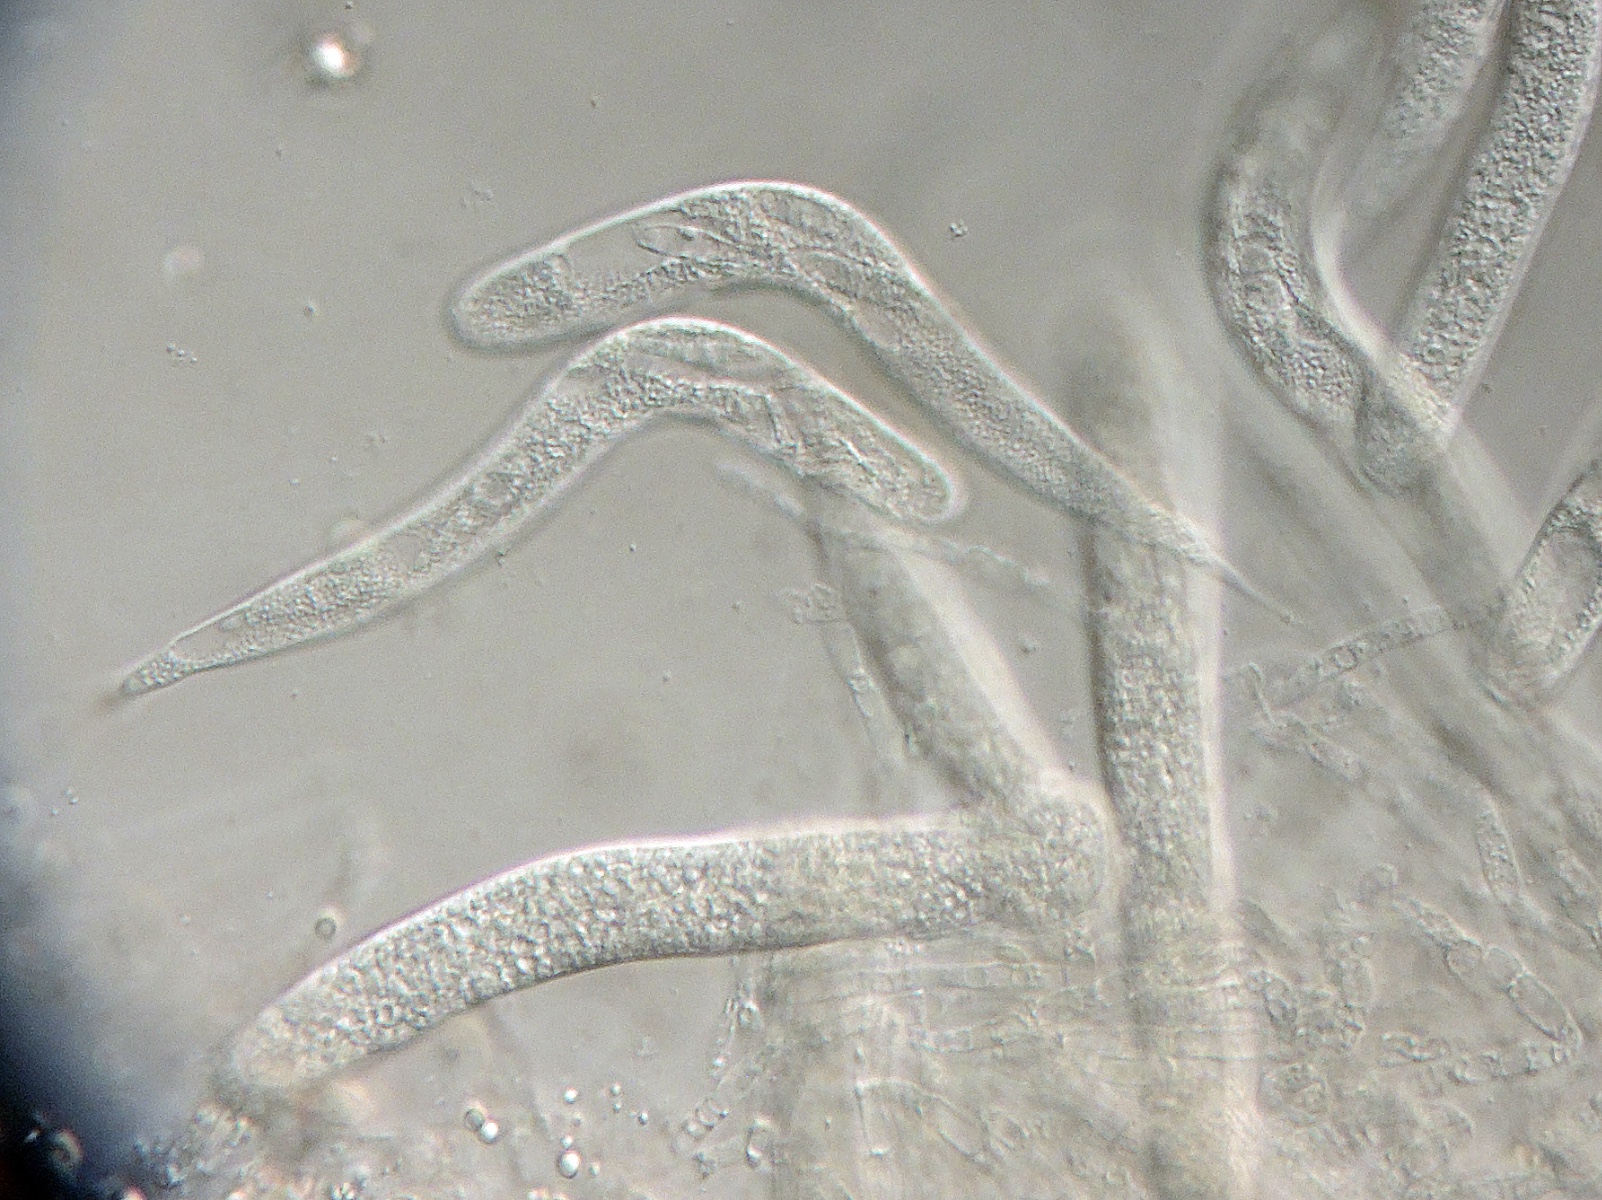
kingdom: Fungi
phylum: Ascomycota
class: Sordariomycetes
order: Annulatascales
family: Annulatascaceae
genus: Rhamphoria
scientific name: Rhamphoria pyriformis
